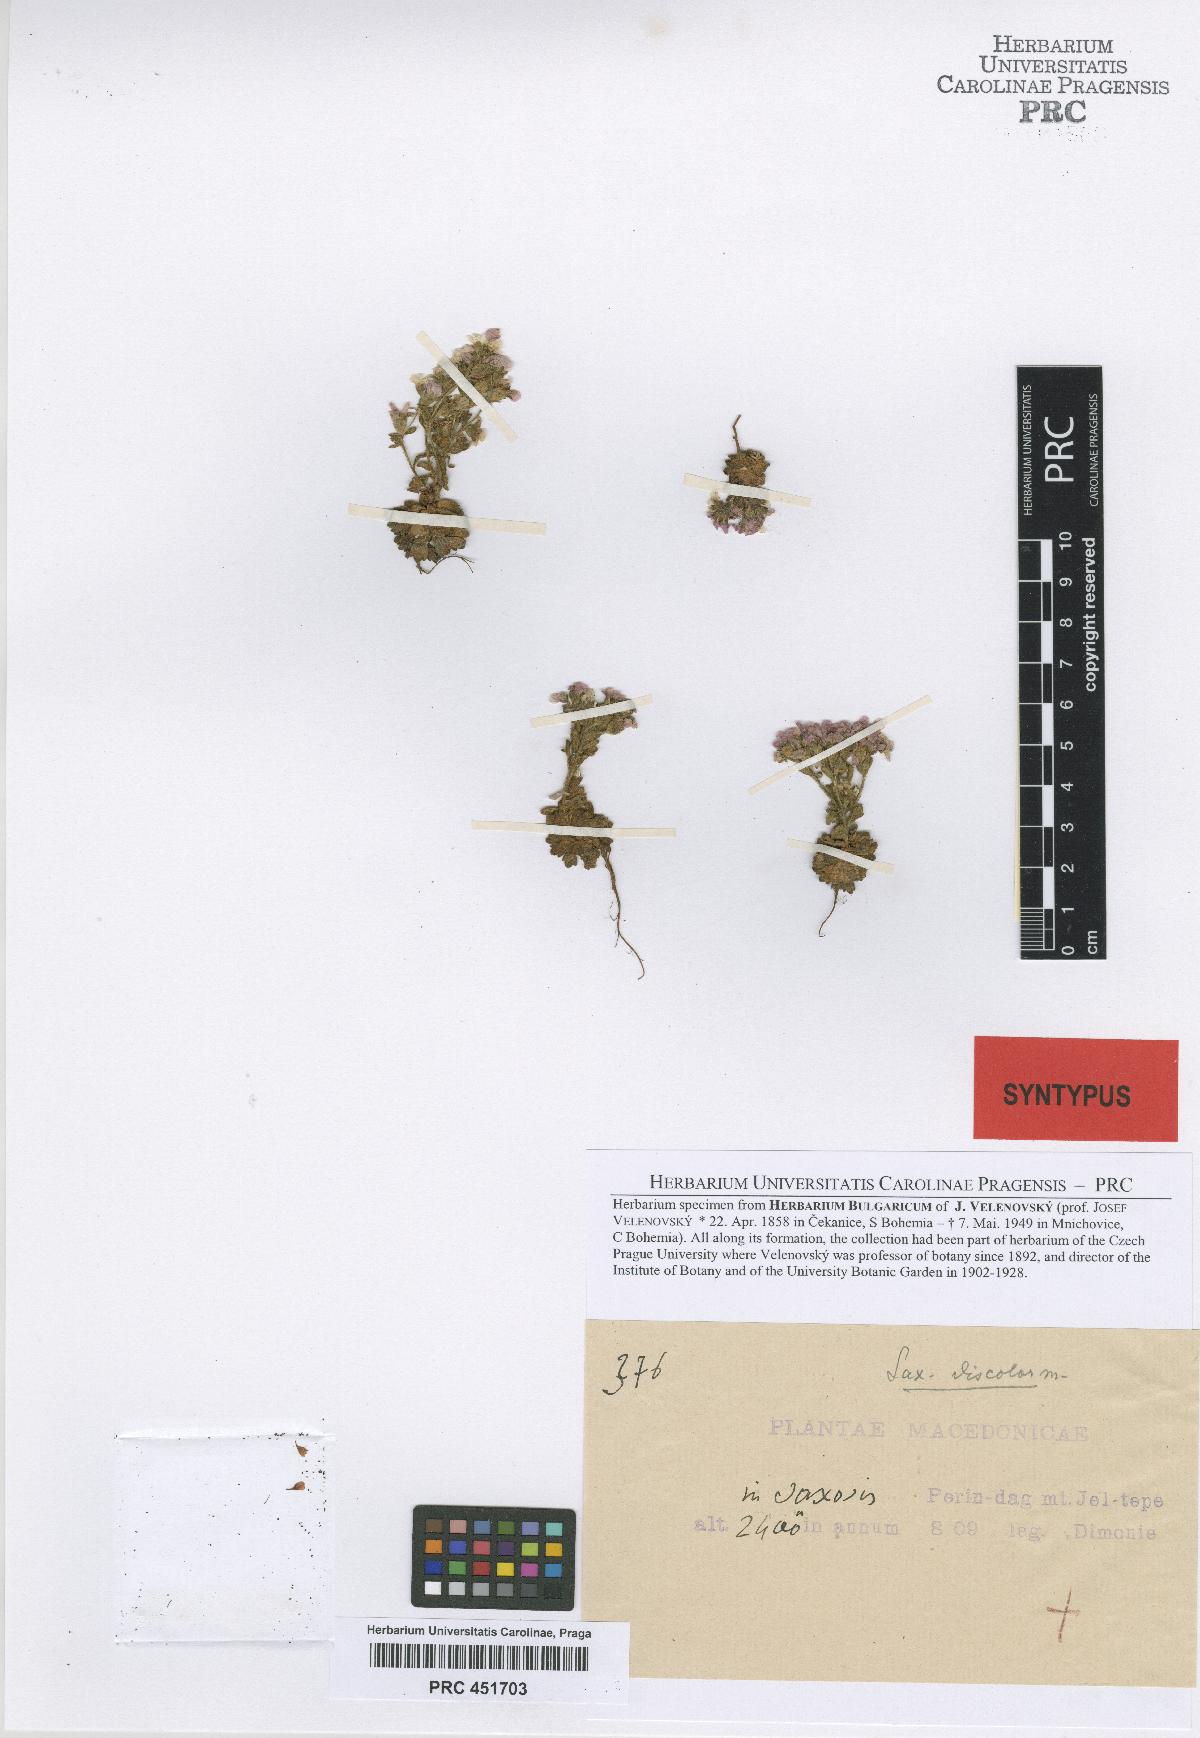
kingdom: Plantae
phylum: Tracheophyta
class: Magnoliopsida
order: Saxifragales
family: Saxifragaceae
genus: Saxifraga
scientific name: Saxifraga adscendens
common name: Ascending saxifrage
